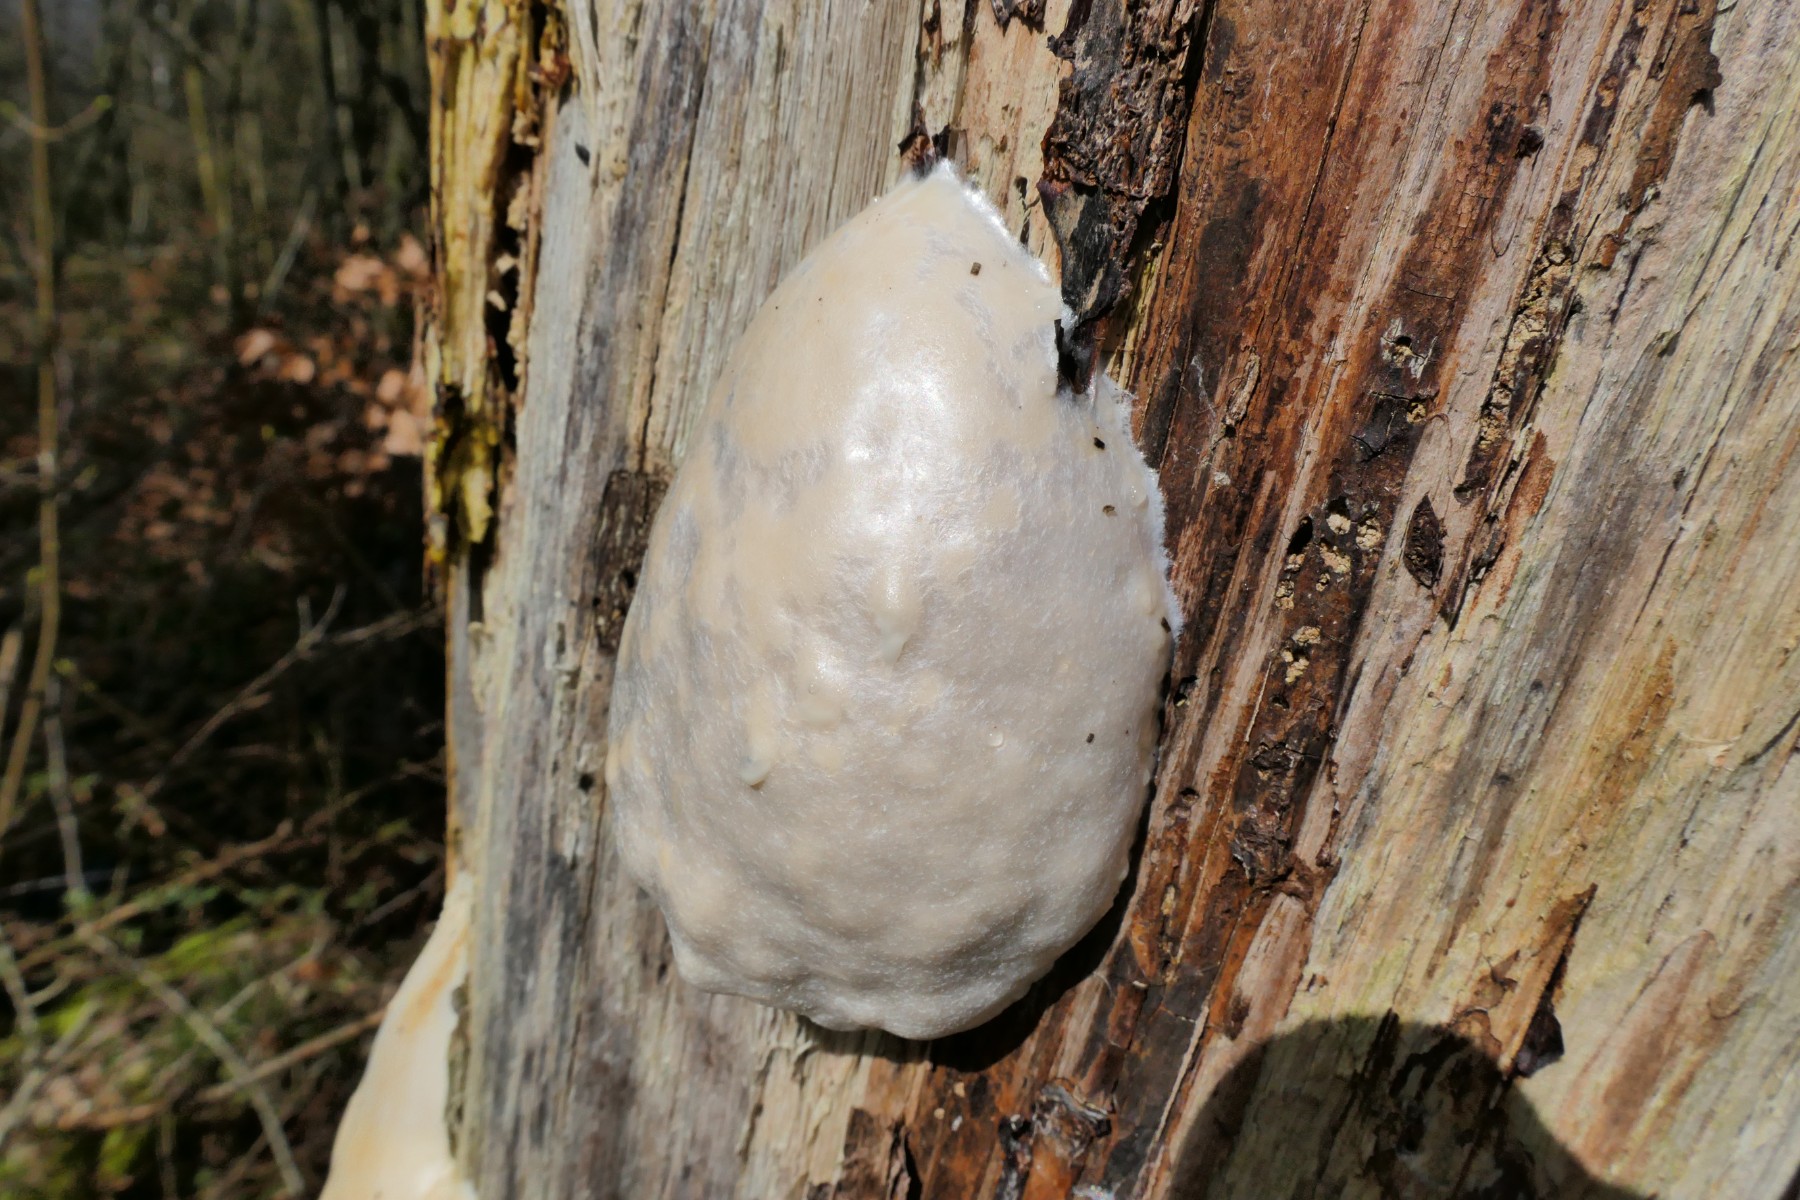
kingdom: Protozoa
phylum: Mycetozoa
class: Myxomycetes
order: Cribrariales
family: Tubiferaceae
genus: Reticularia
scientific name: Reticularia lycoperdon
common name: skinnende støvpude
